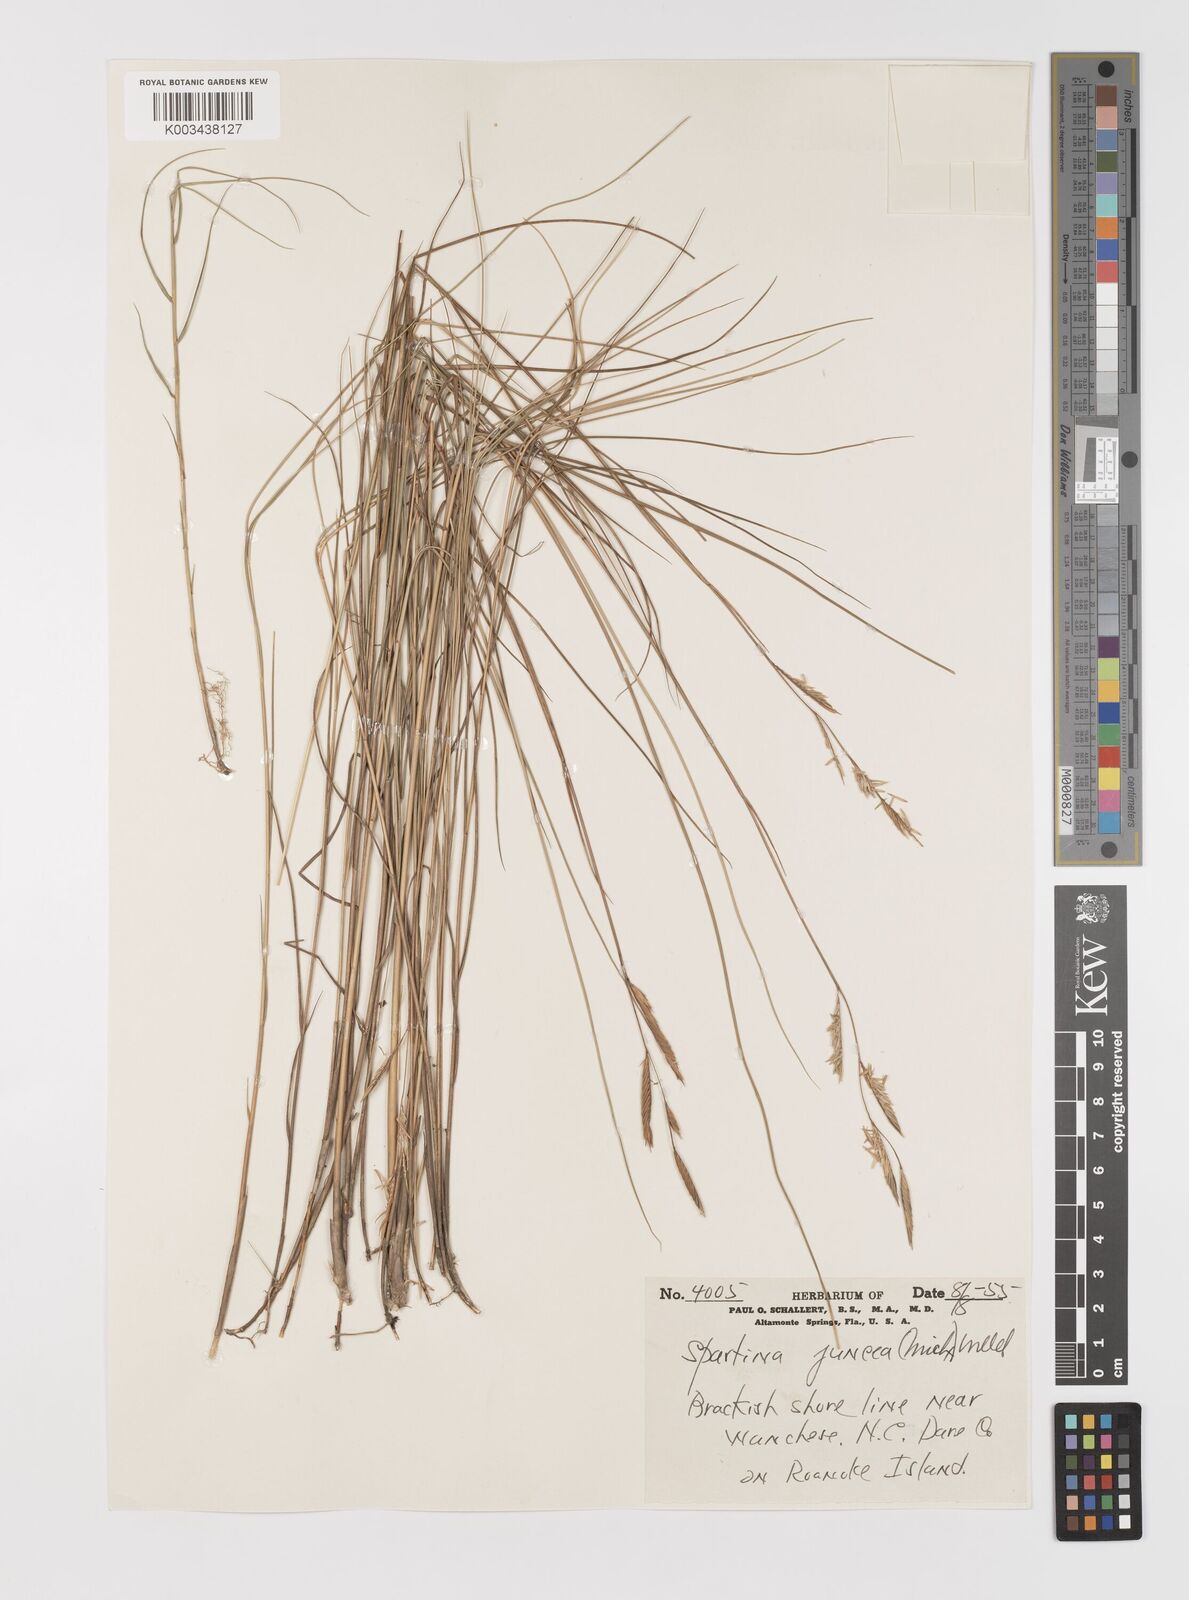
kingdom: Plantae
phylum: Tracheophyta
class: Liliopsida
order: Poales
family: Poaceae
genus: Sporobolus
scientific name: Sporobolus pumilus
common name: Highwater grass
